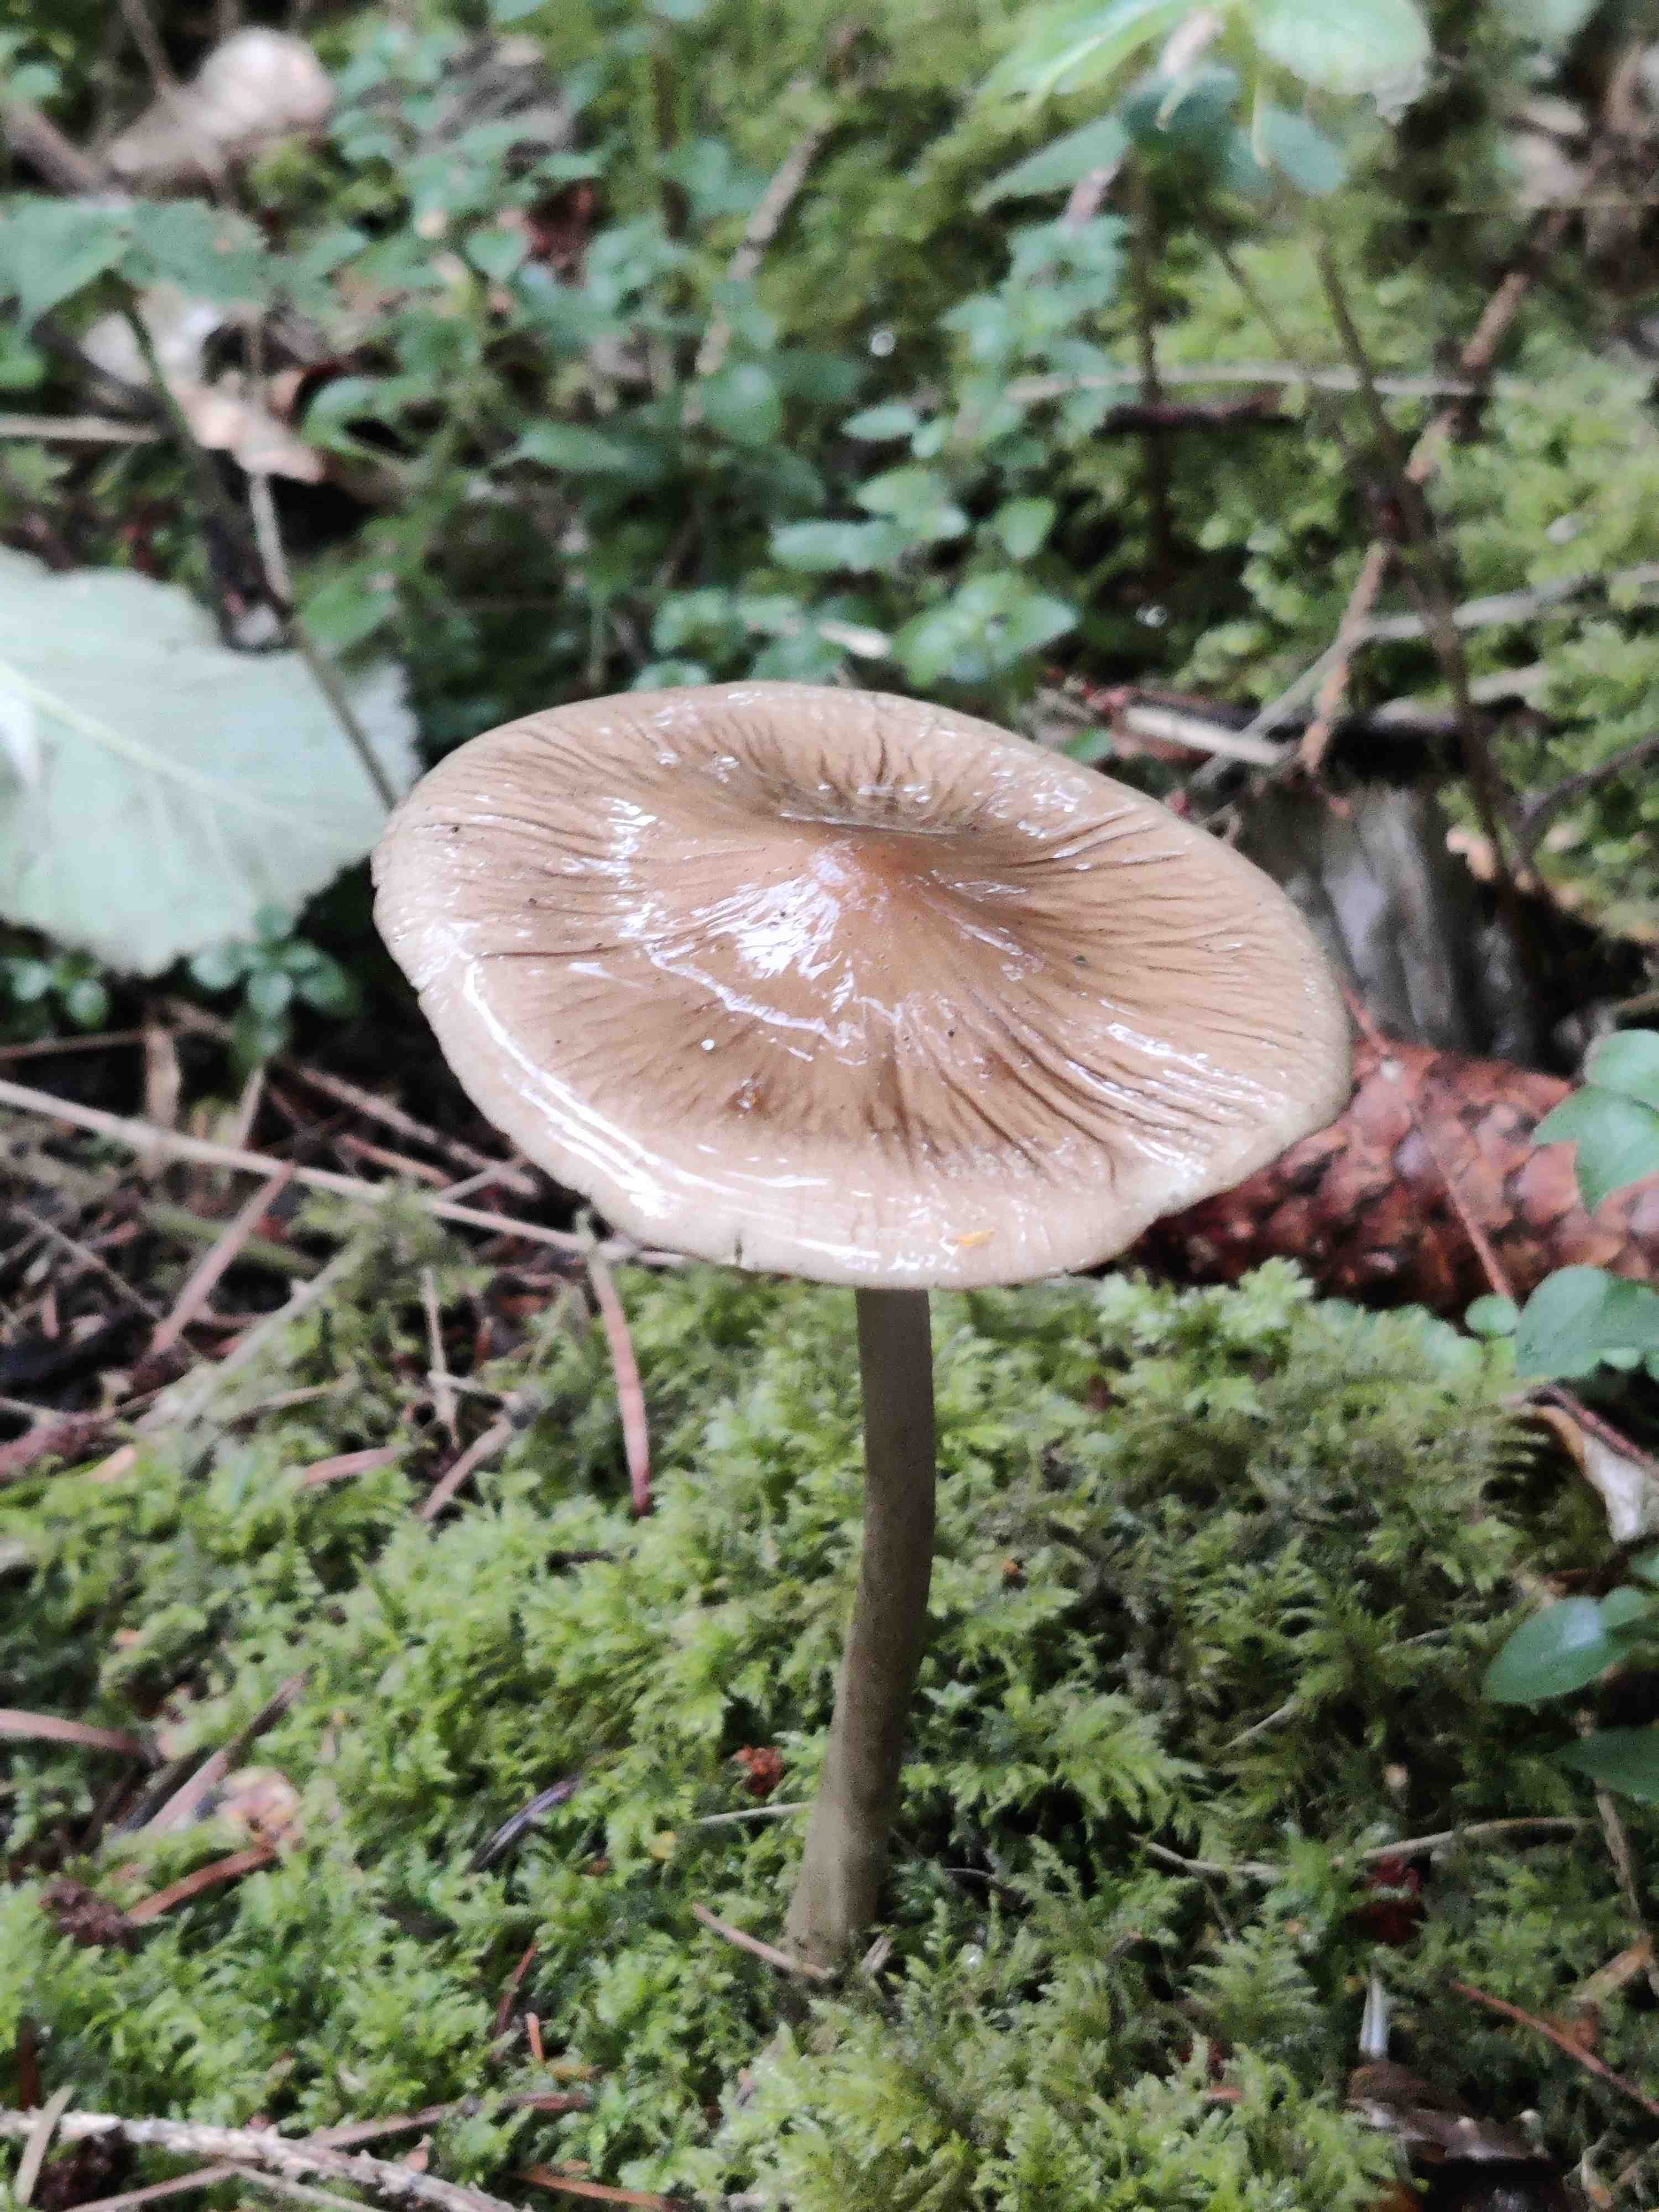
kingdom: Fungi
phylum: Basidiomycota
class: Agaricomycetes
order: Agaricales
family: Physalacriaceae
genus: Hymenopellis
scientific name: Hymenopellis radicata
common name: almindelig pælerodshat
